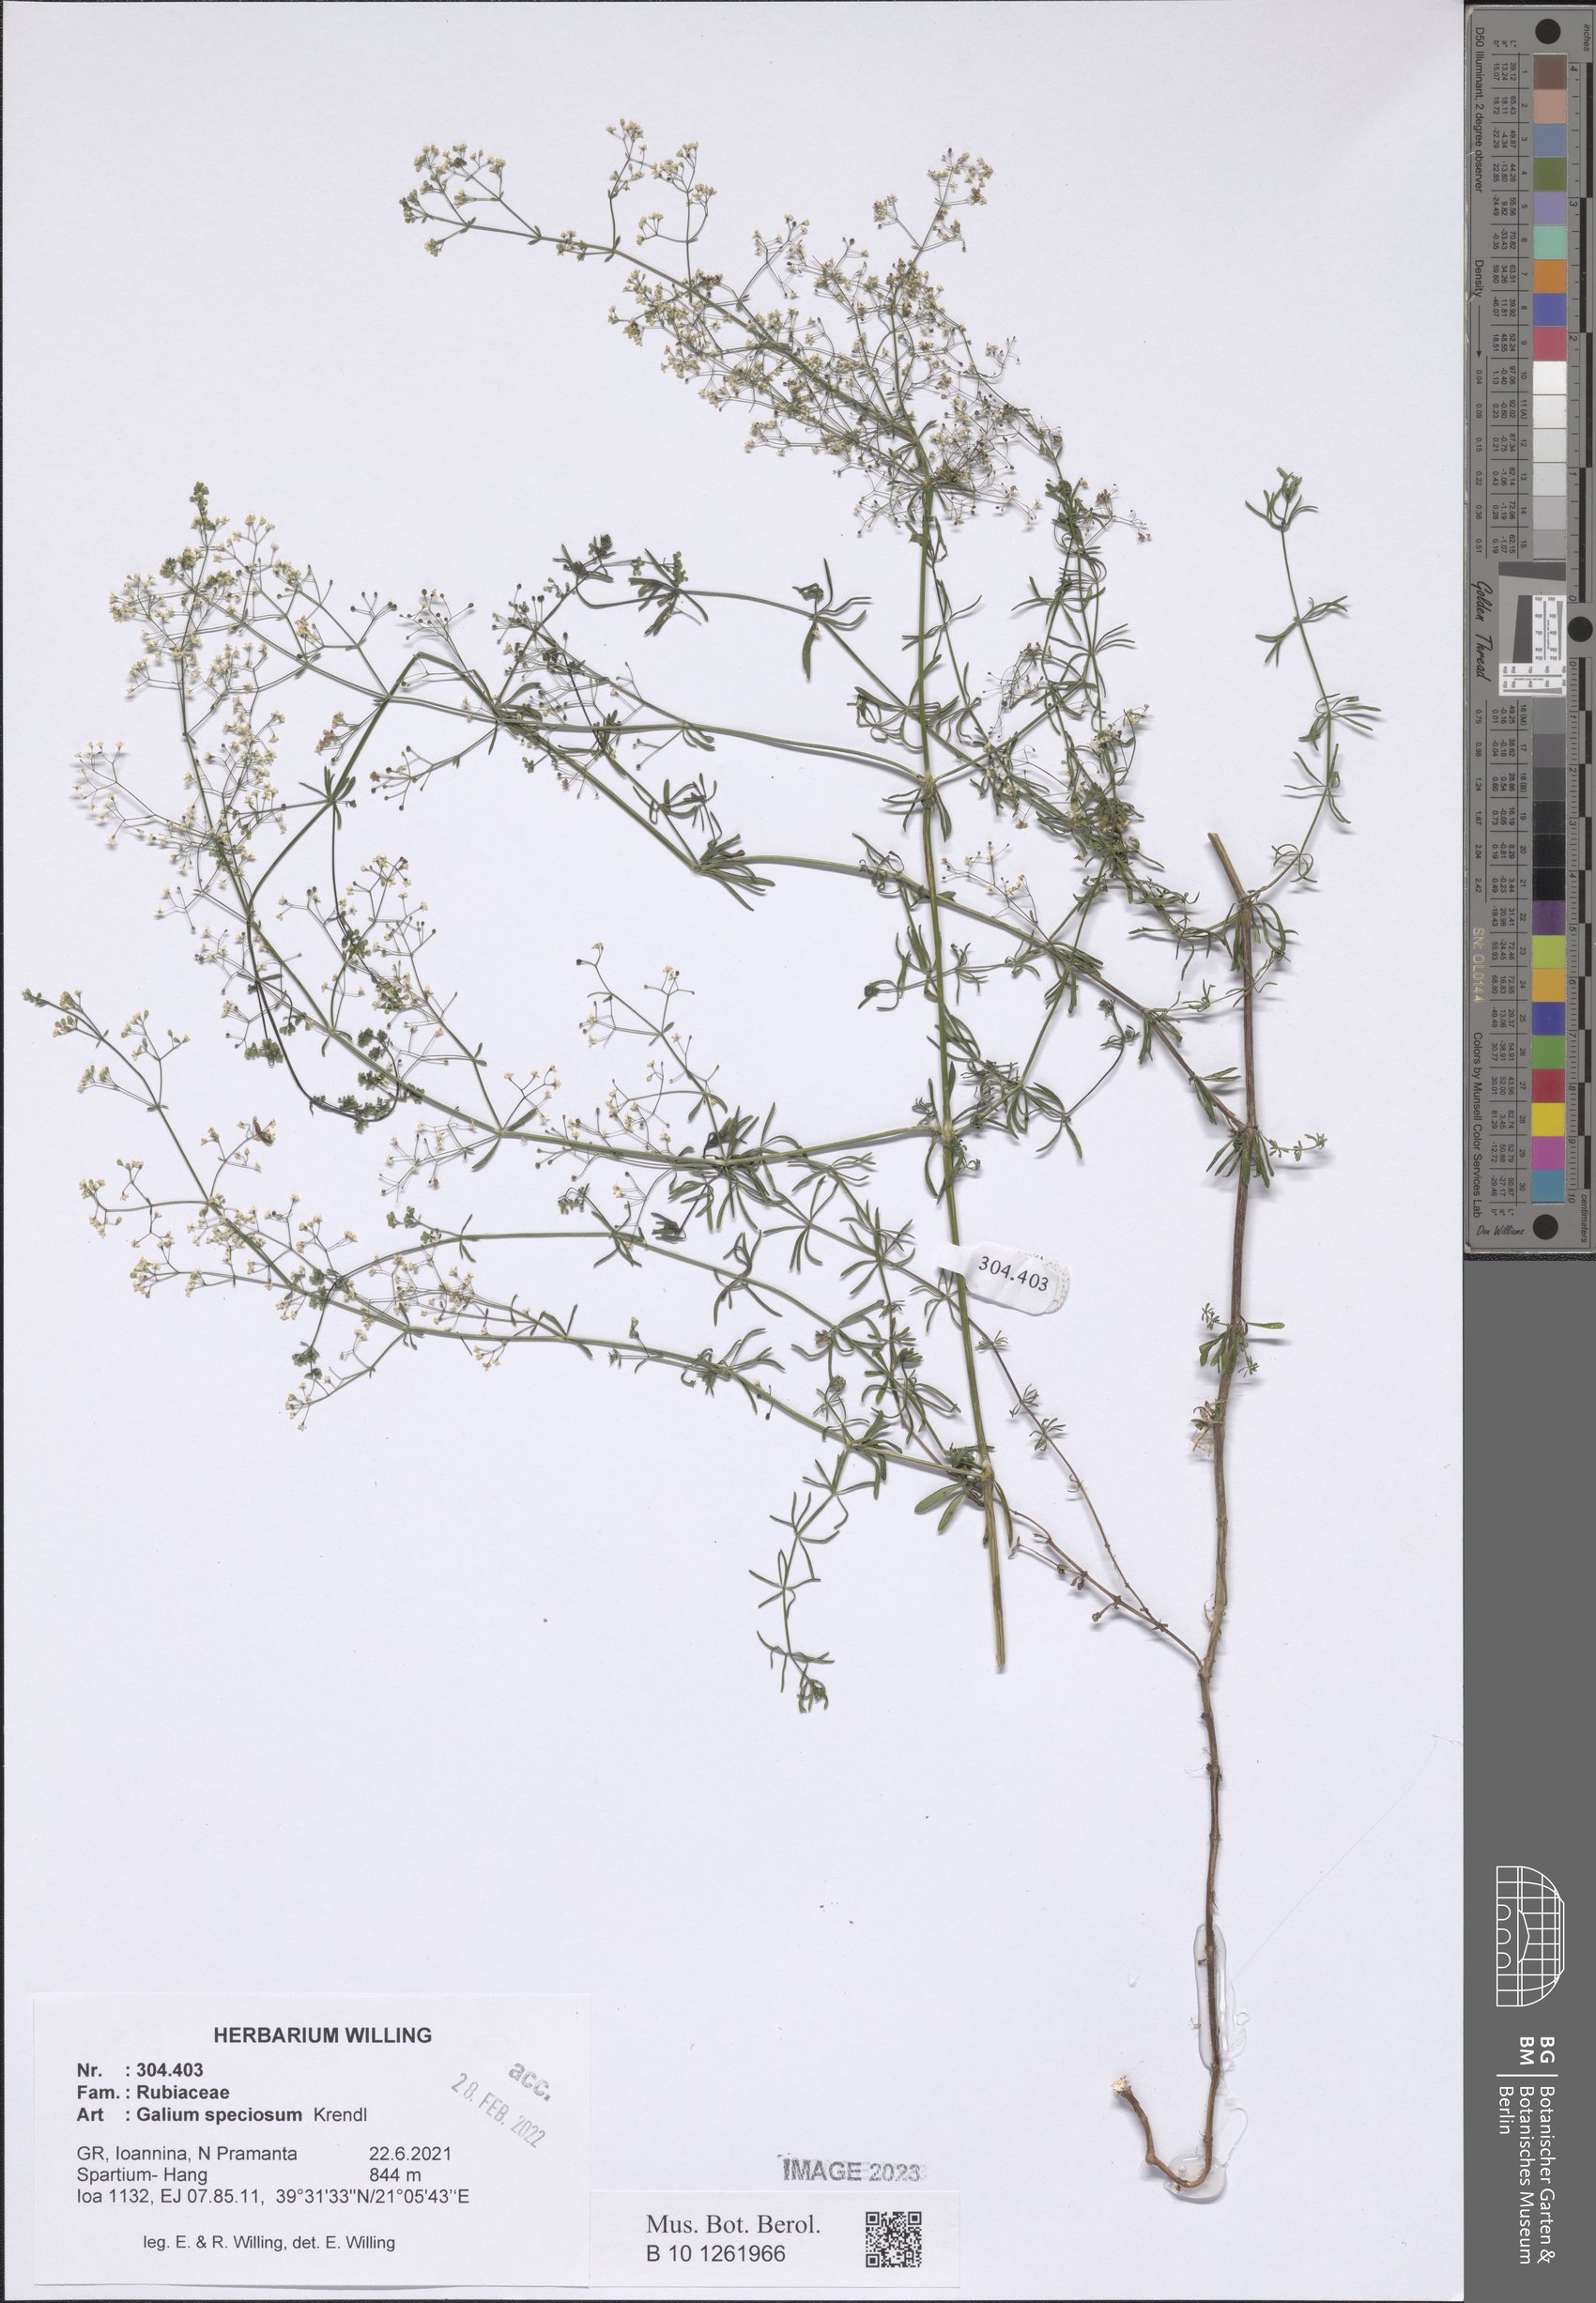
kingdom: Plantae
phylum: Tracheophyta
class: Magnoliopsida
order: Gentianales
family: Rubiaceae
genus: Galium
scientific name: Galium speciosum
